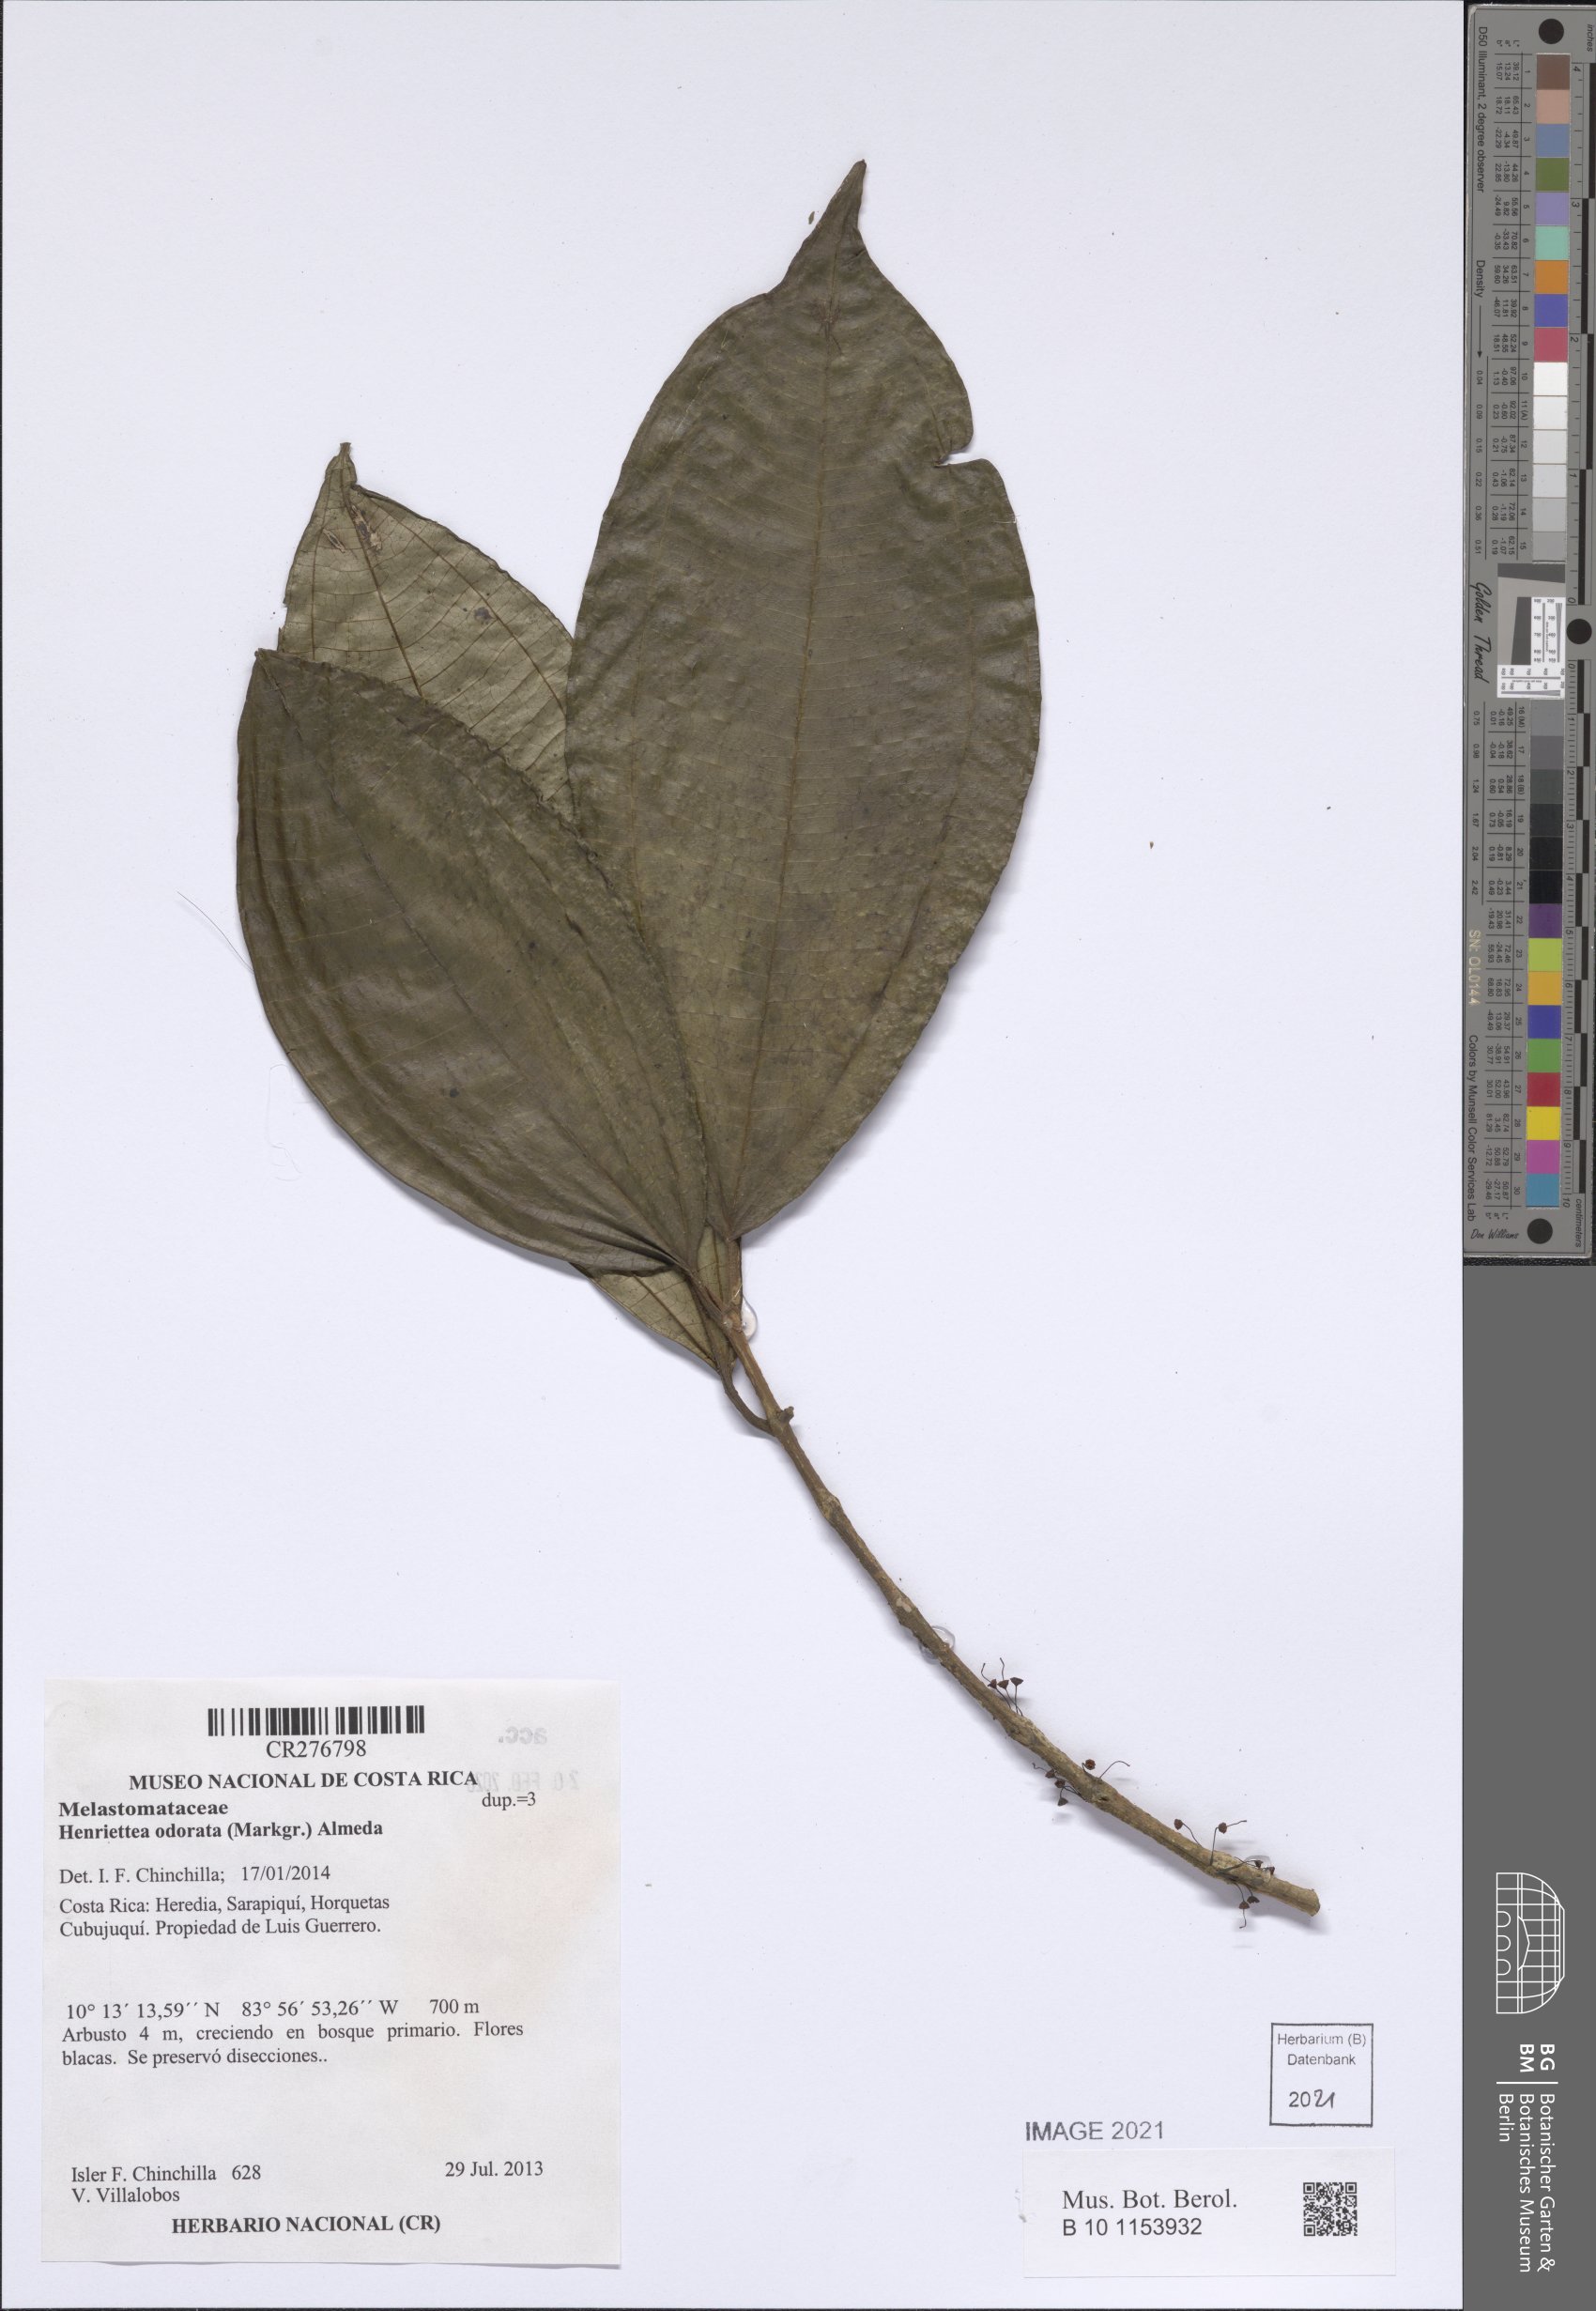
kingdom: Plantae
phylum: Tracheophyta
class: Magnoliopsida
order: Myrtales
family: Melastomataceae
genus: Henriettea
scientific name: Henriettea odorata
